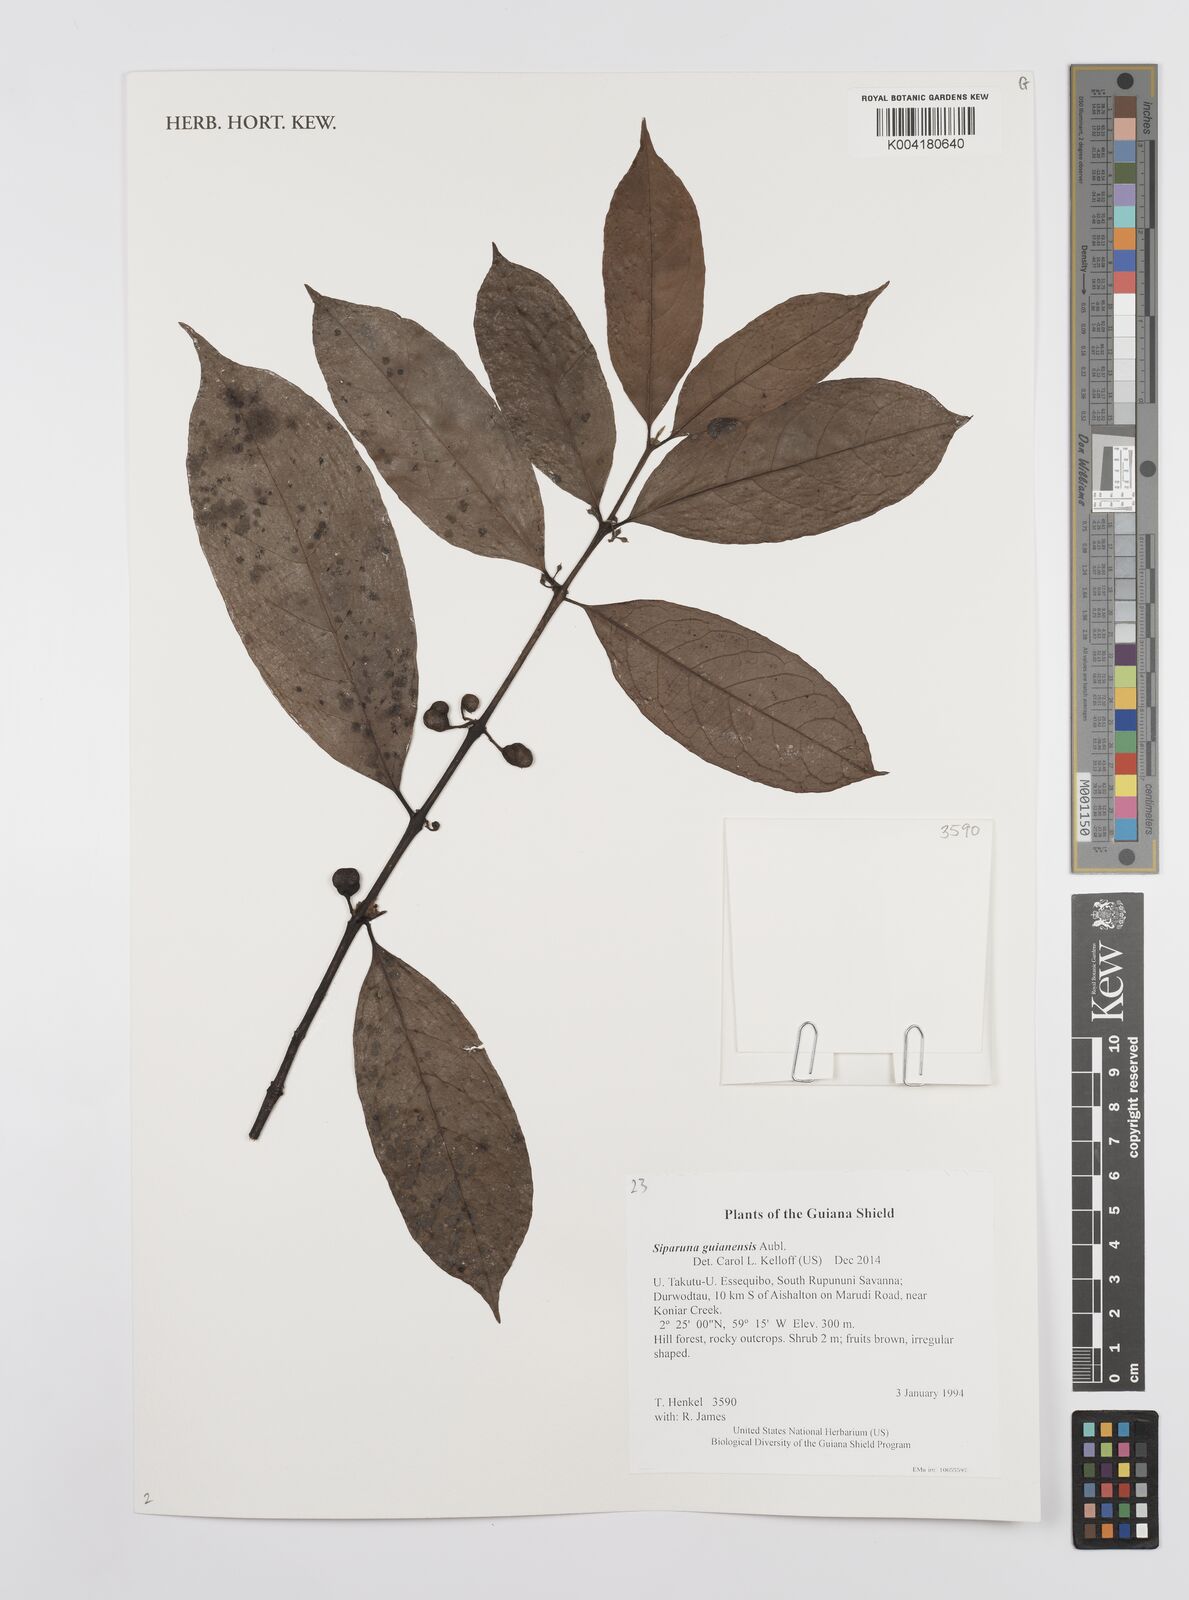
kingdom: Plantae
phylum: Tracheophyta
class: Magnoliopsida
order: Laurales
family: Siparunaceae
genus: Siparuna
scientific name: Siparuna guianensis
